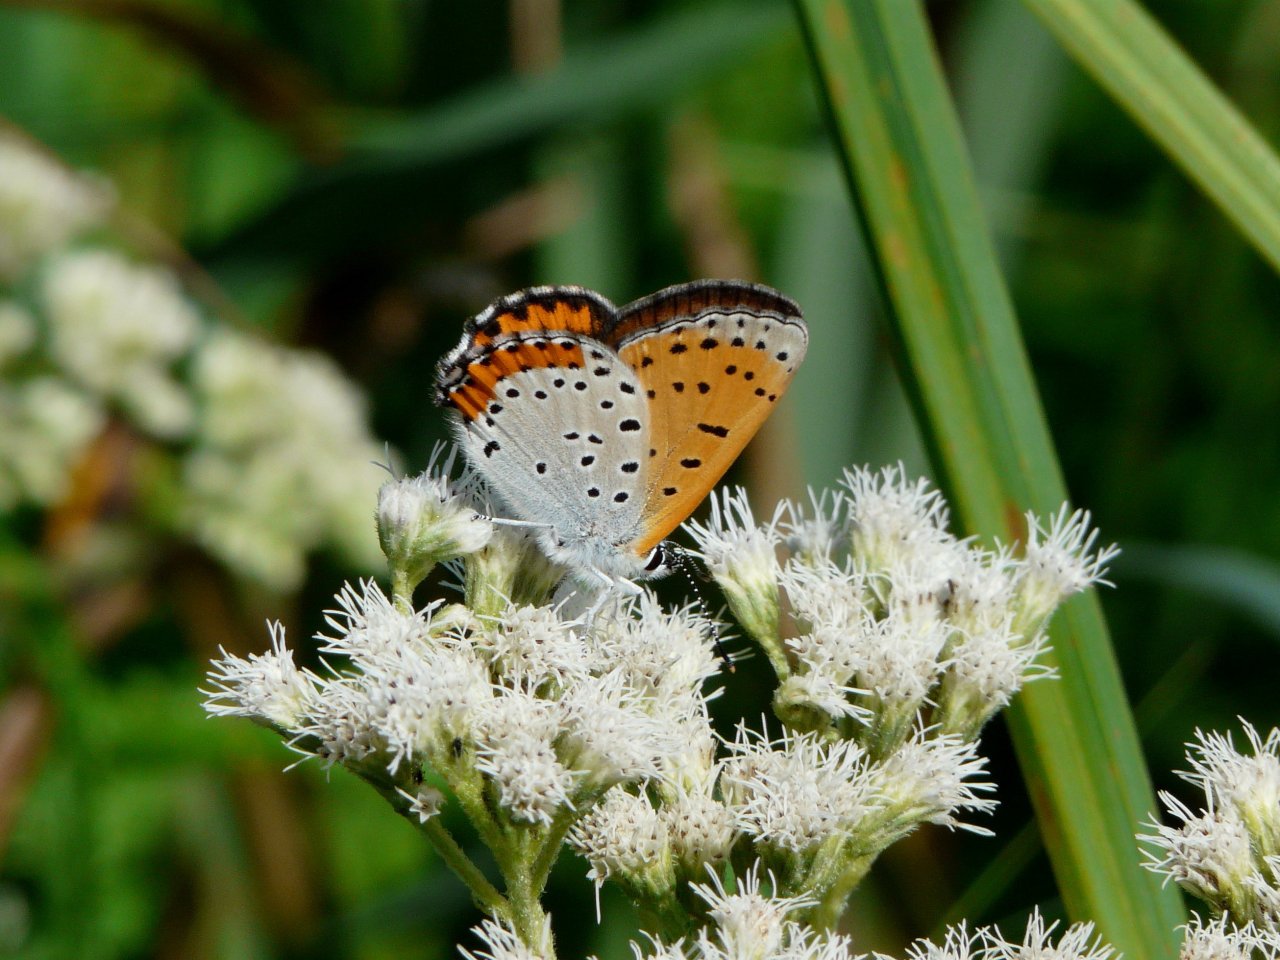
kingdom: Animalia
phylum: Arthropoda
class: Insecta
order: Lepidoptera
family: Sesiidae
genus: Sesia
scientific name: Sesia Lycaena hyllus
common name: Bronze Copper
